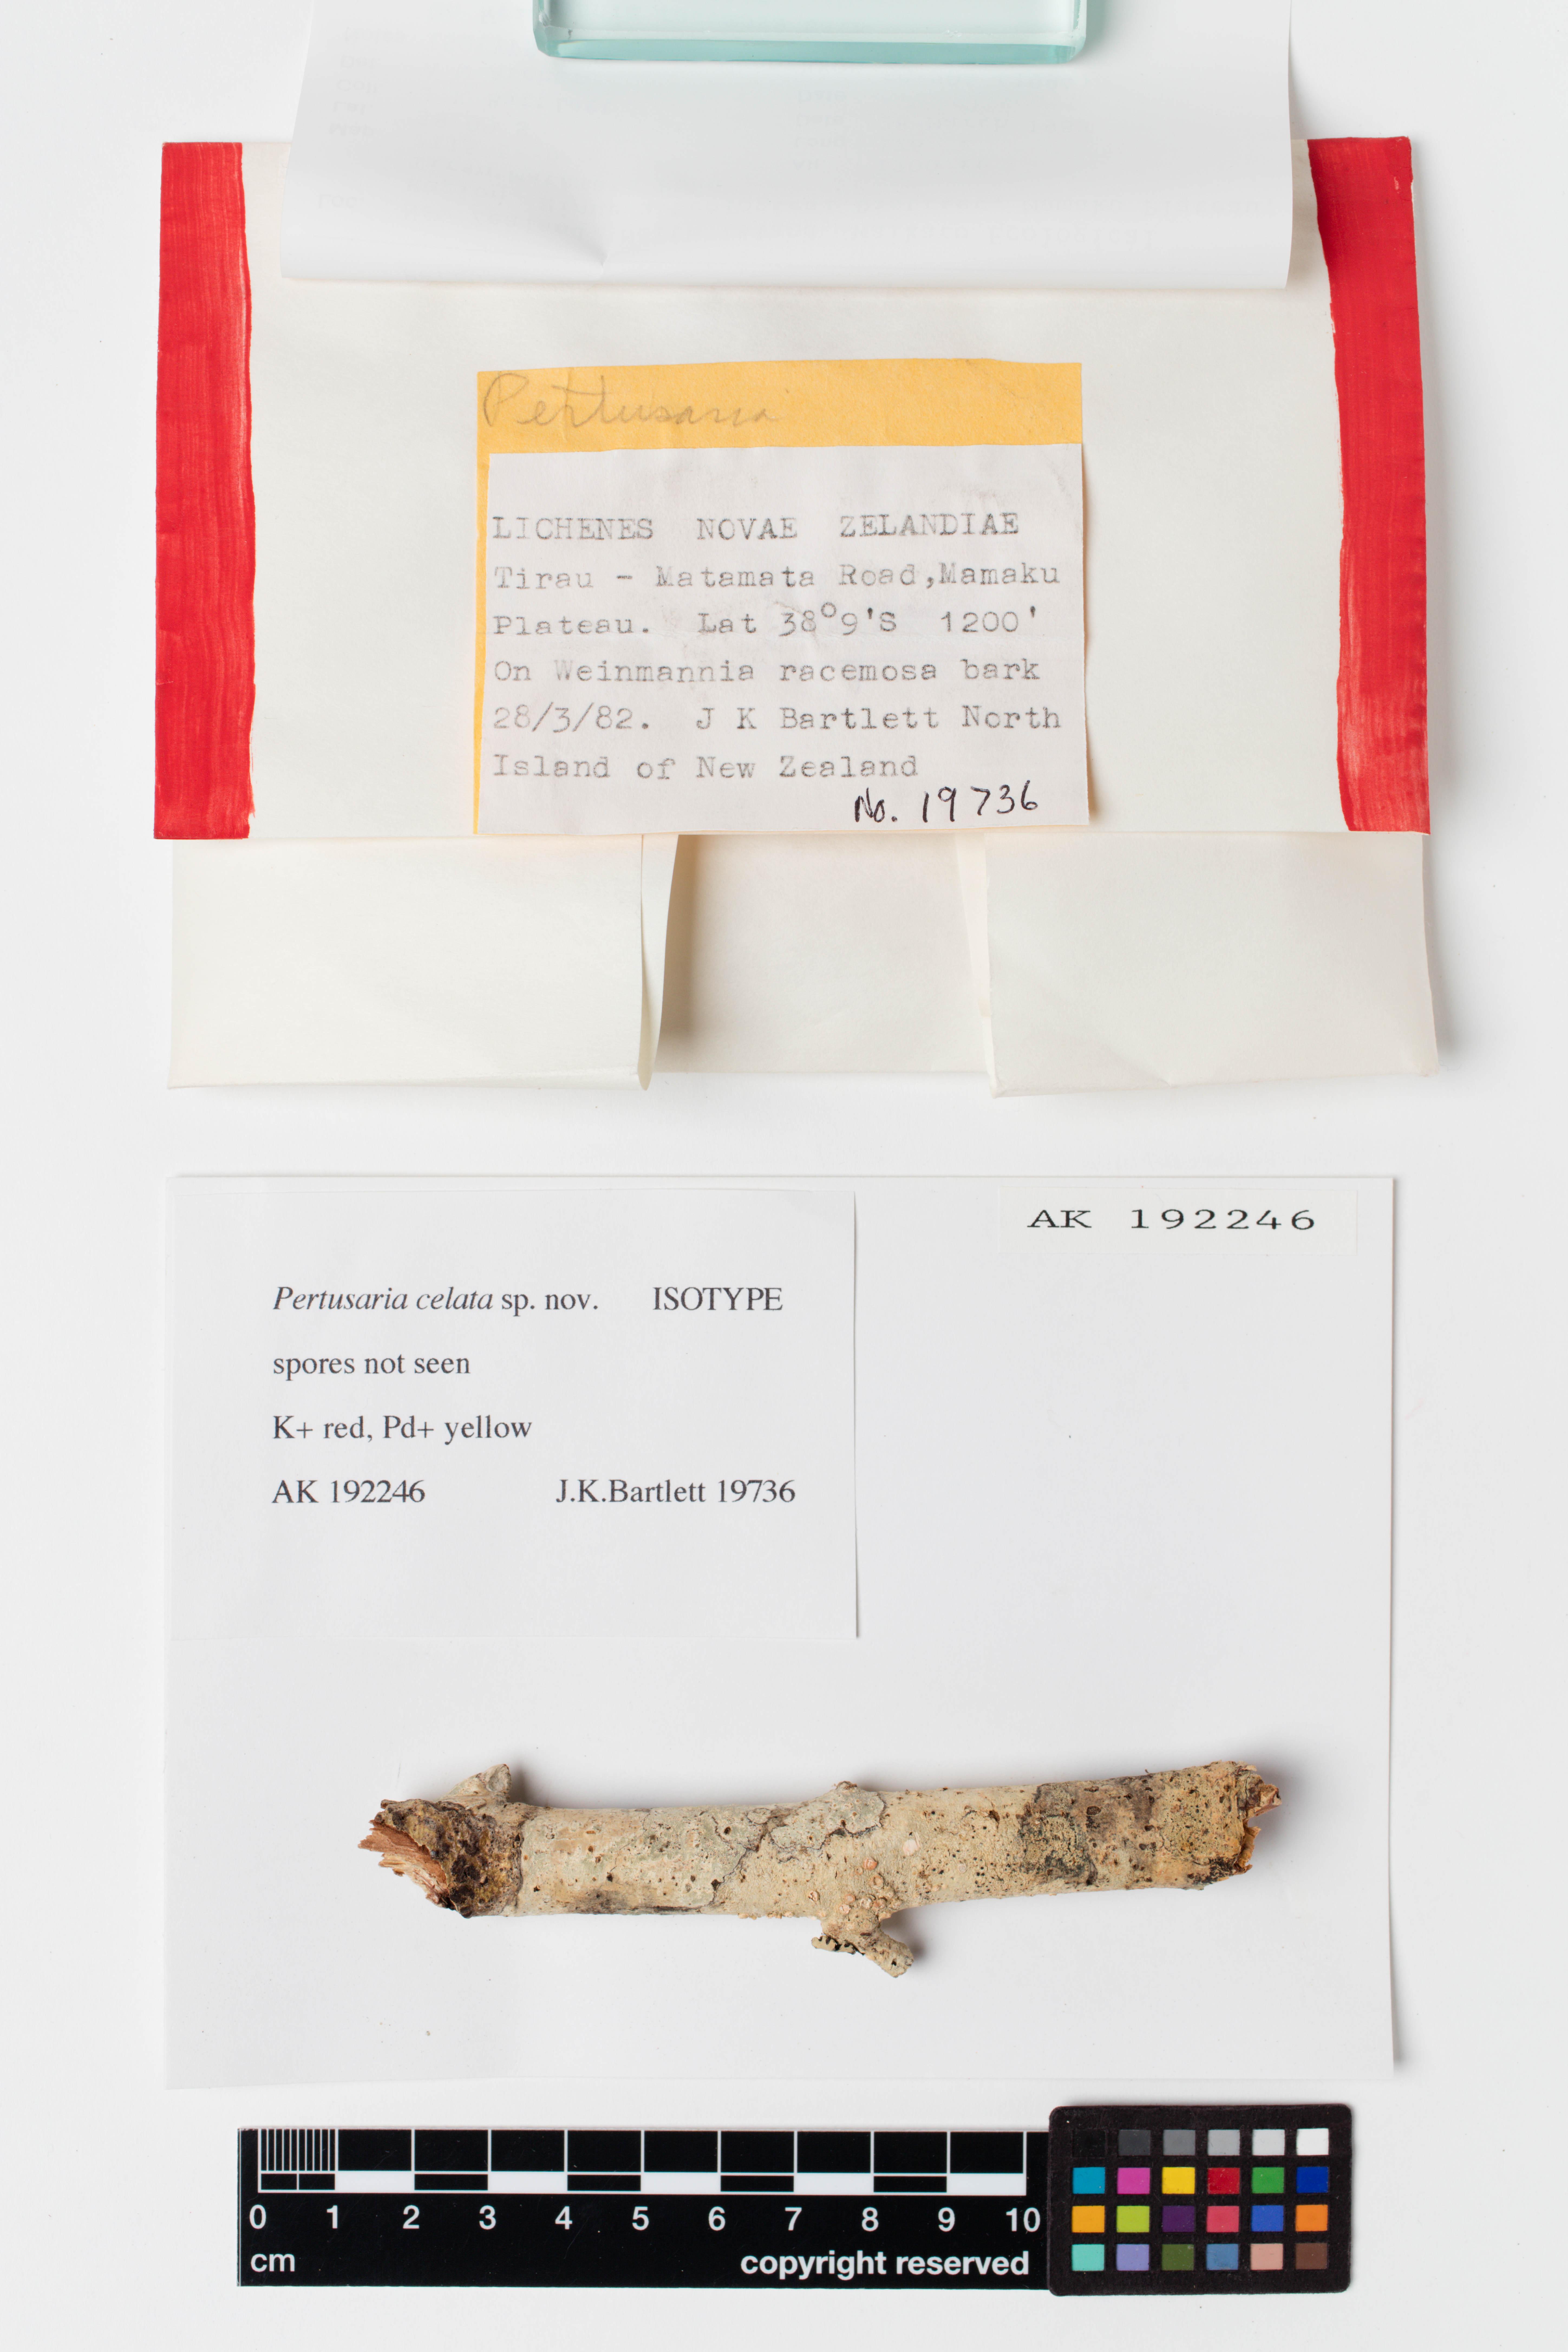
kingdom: Fungi
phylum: Ascomycota
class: Lecanoromycetes
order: Pertusariales
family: Pertusariaceae
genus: Pertusaria
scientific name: Pertusaria celata
